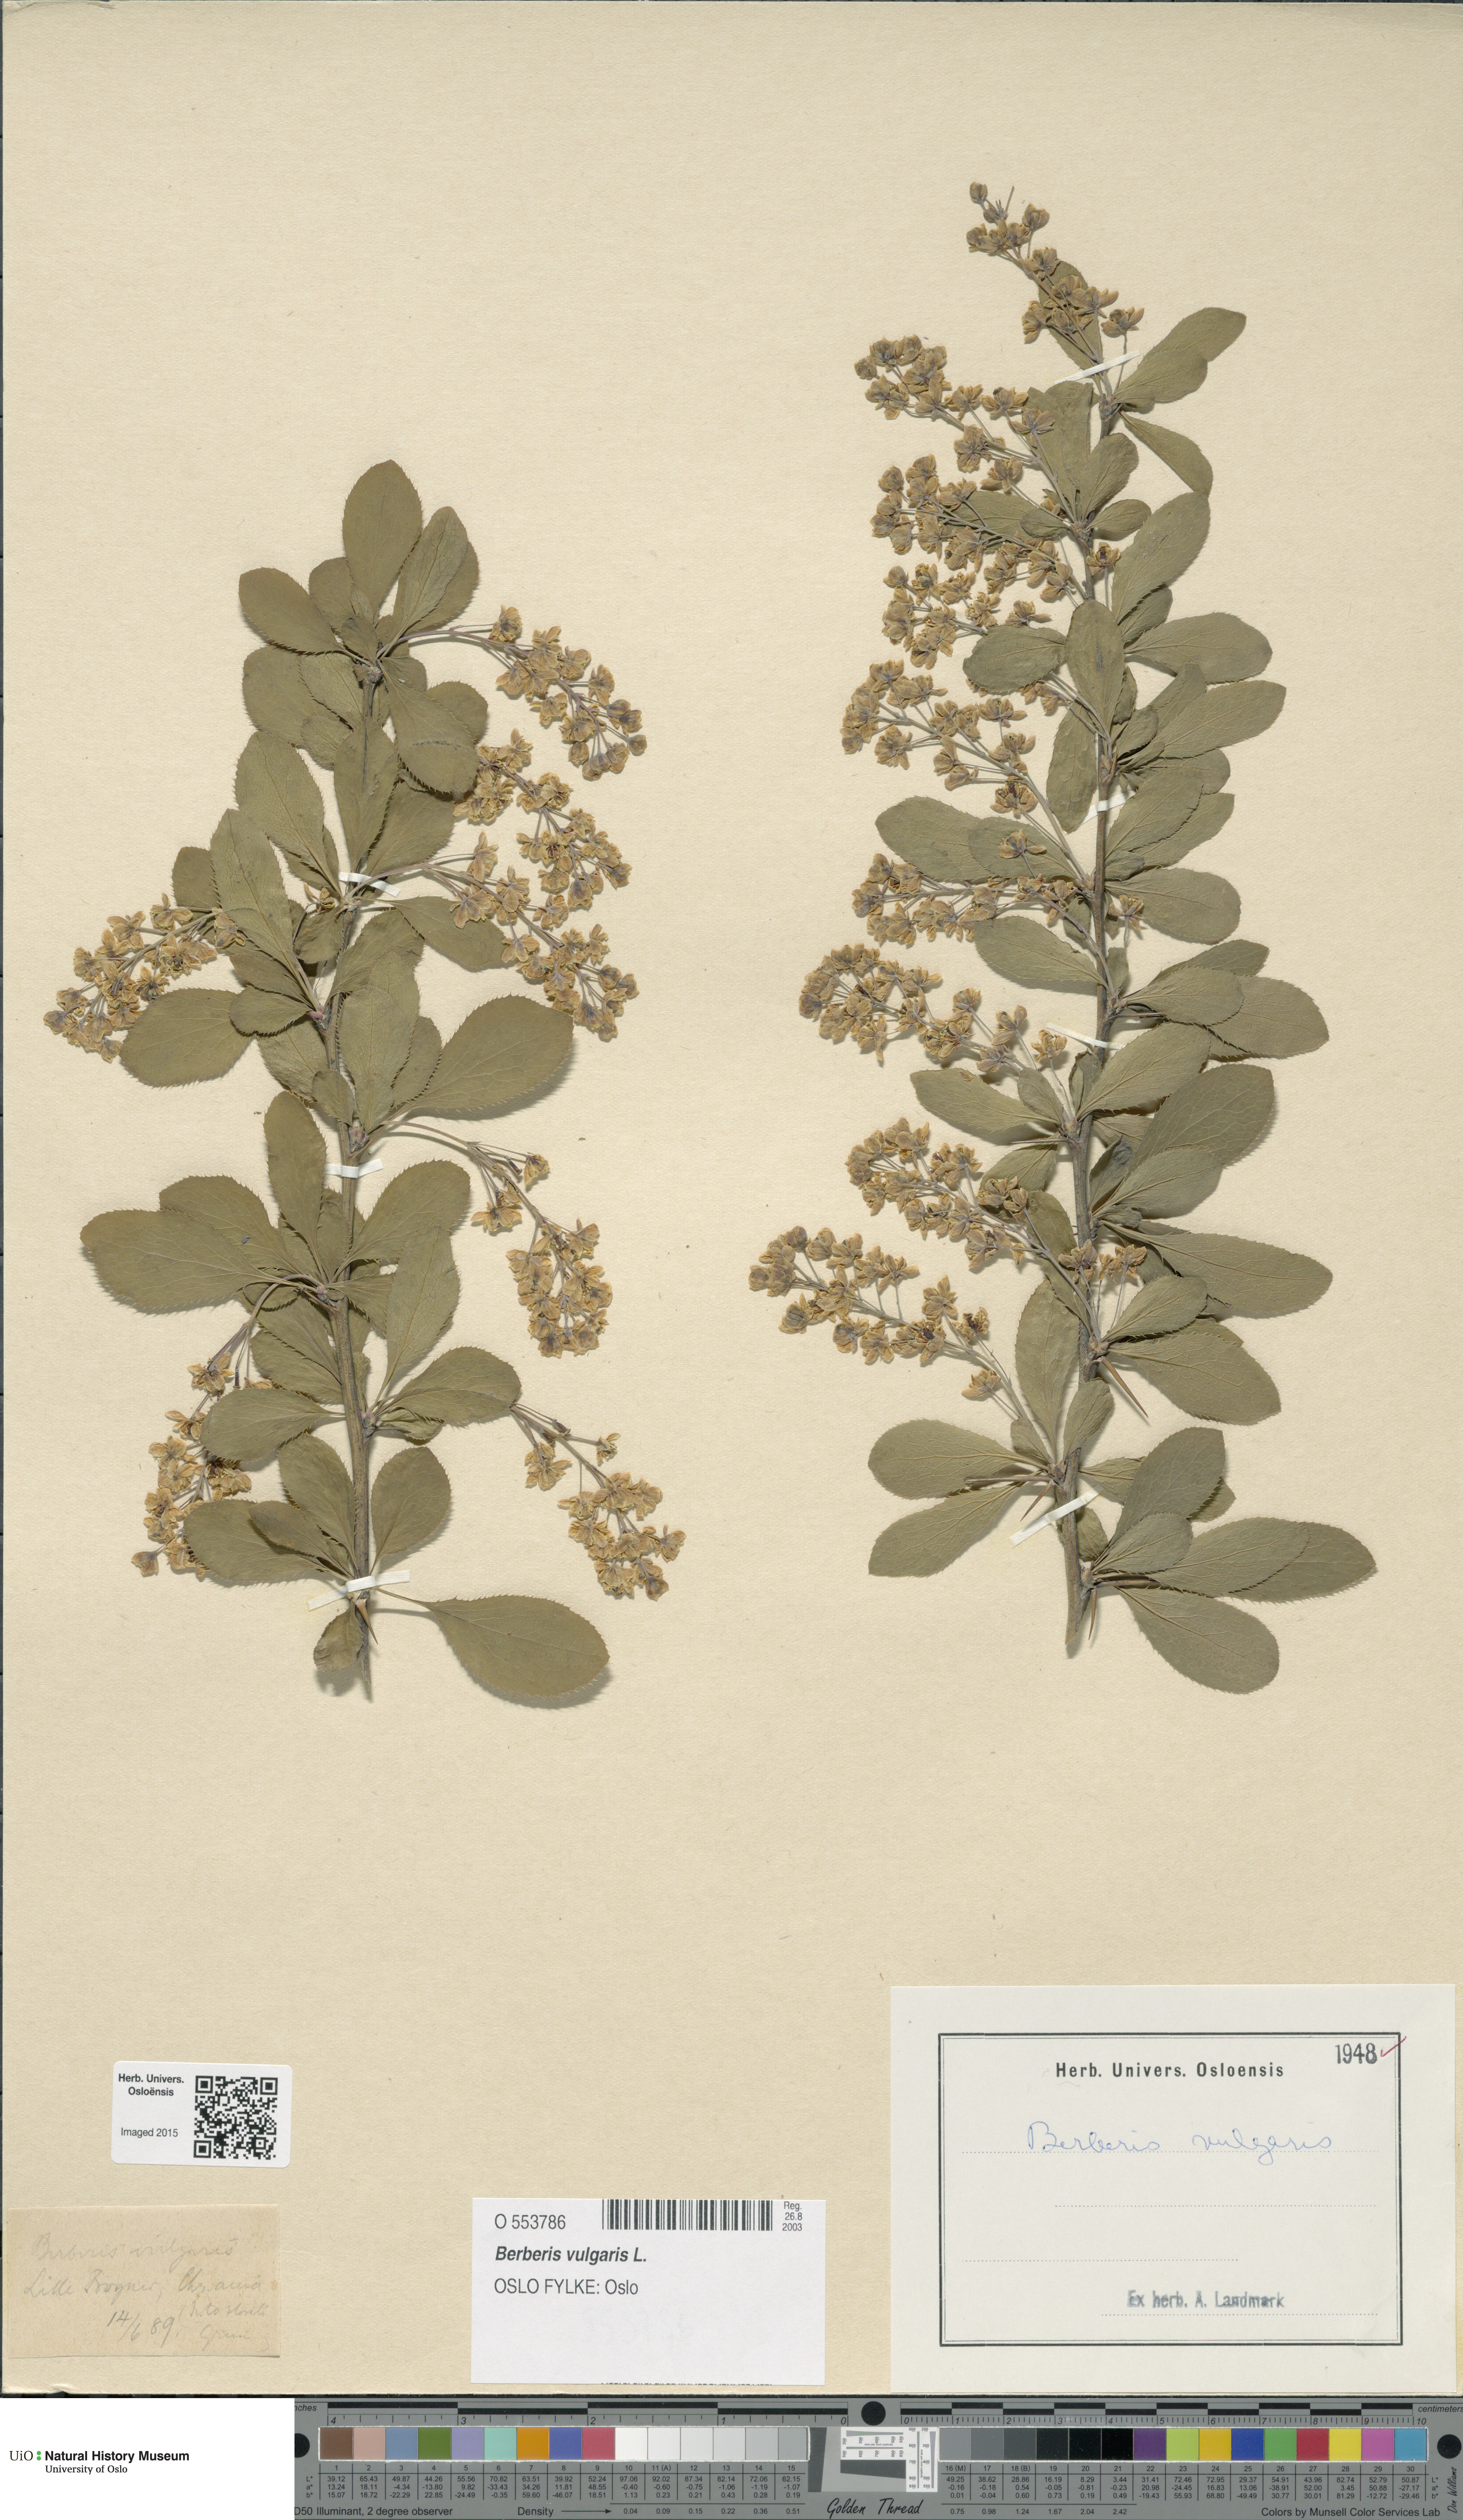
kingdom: Plantae
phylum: Tracheophyta
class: Magnoliopsida
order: Ranunculales
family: Berberidaceae
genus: Berberis
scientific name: Berberis vulgaris
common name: Barberry
